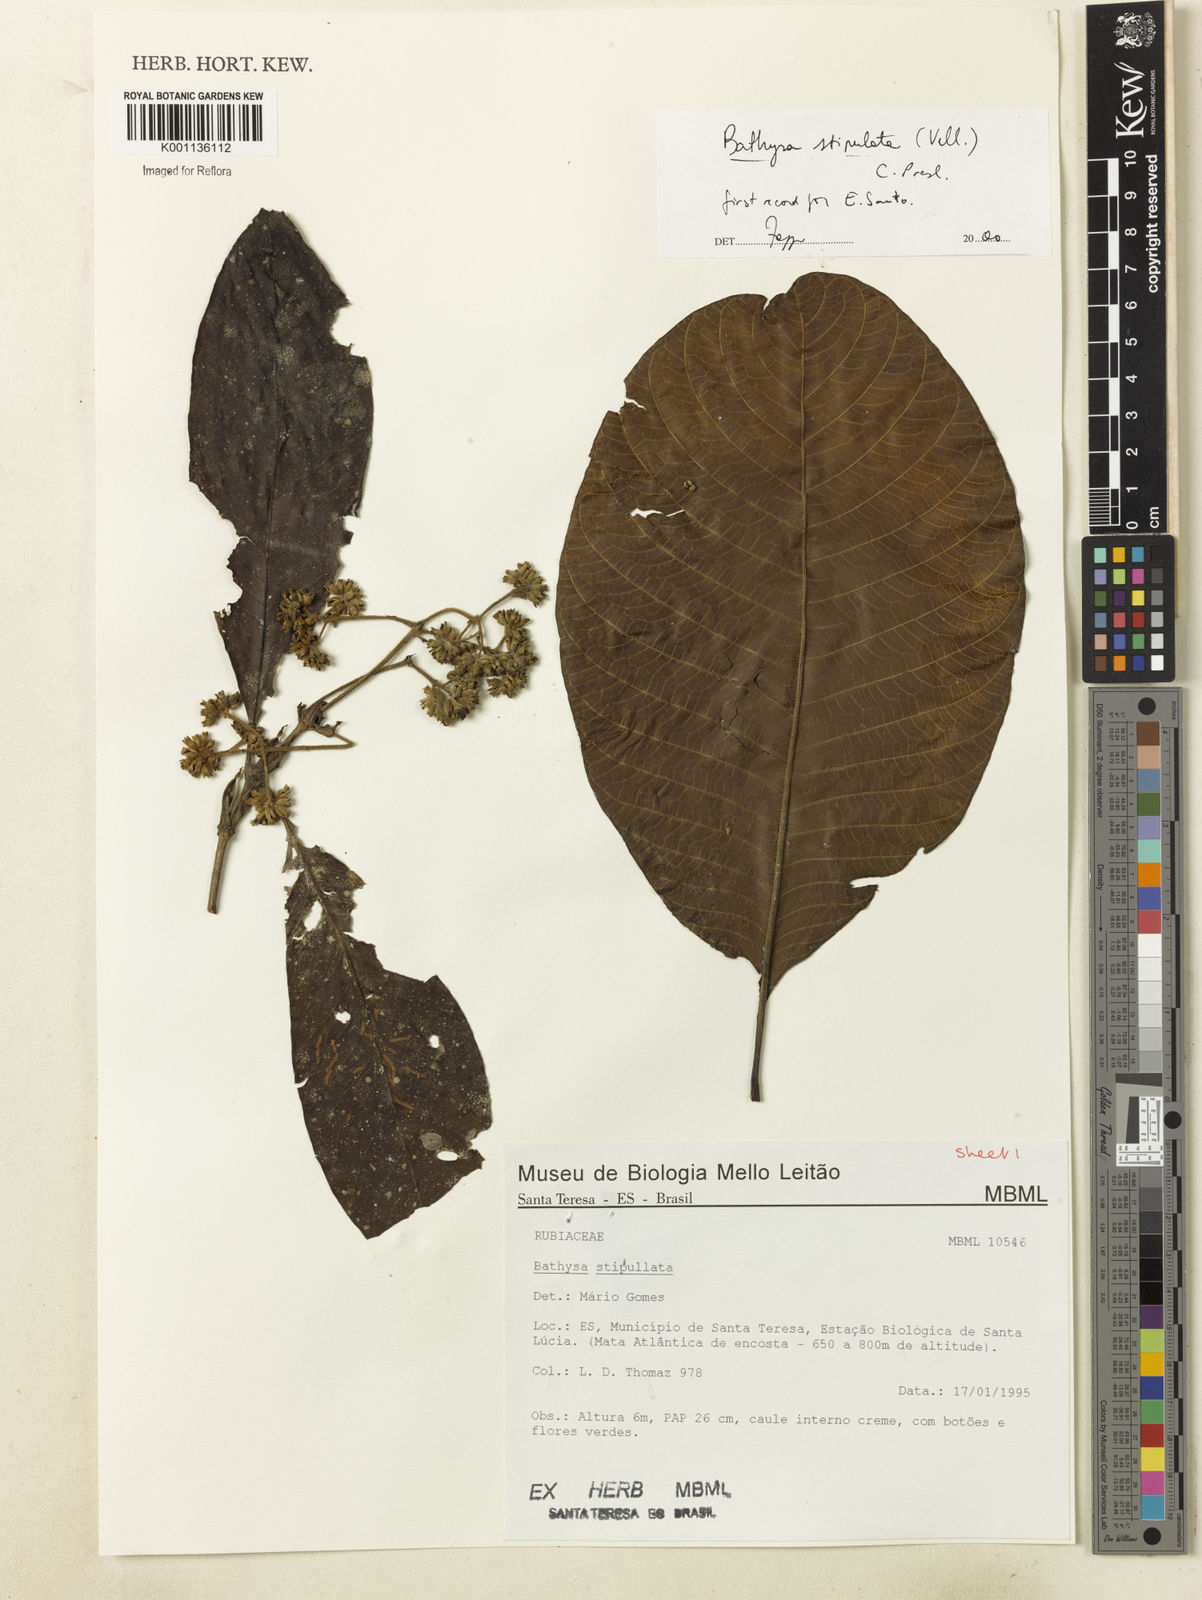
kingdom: Plantae
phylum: Tracheophyta
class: Magnoliopsida
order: Gentianales
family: Rubiaceae
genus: Bathysa
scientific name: Bathysa stipulata
